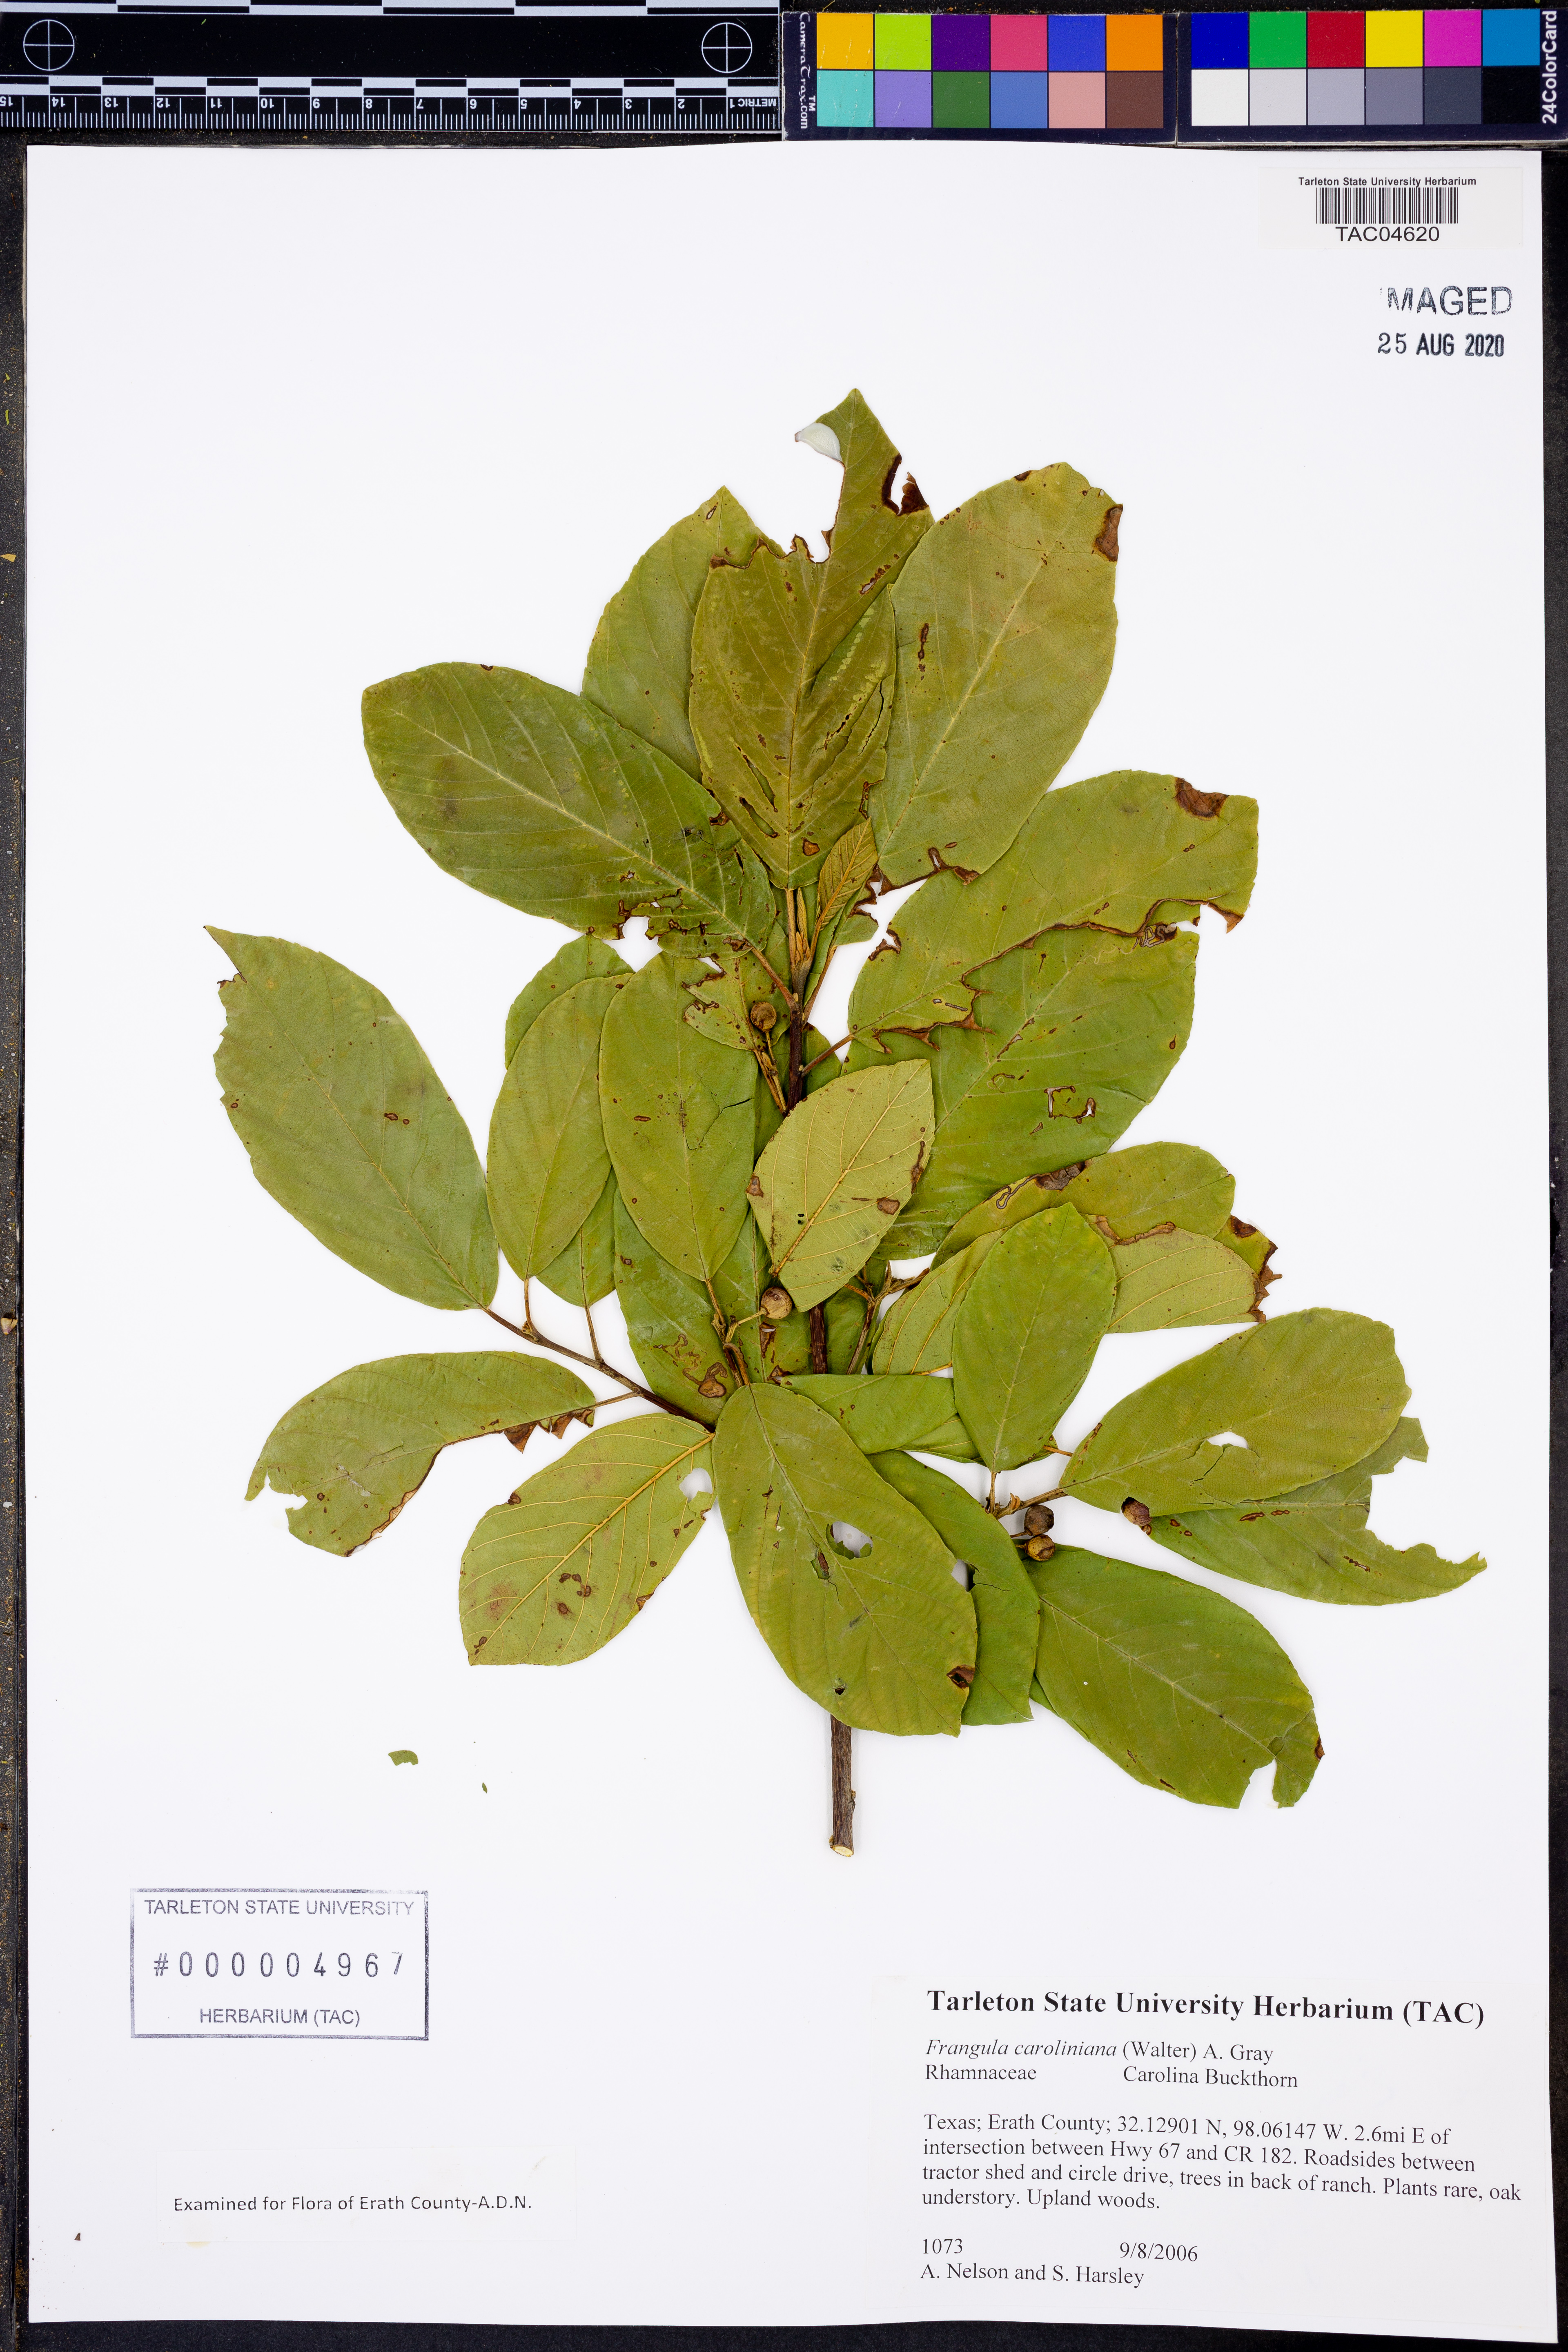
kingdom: Plantae
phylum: Tracheophyta
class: Magnoliopsida
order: Rosales
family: Rhamnaceae
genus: Frangula
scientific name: Frangula caroliniana
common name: Carolina buckthorn
